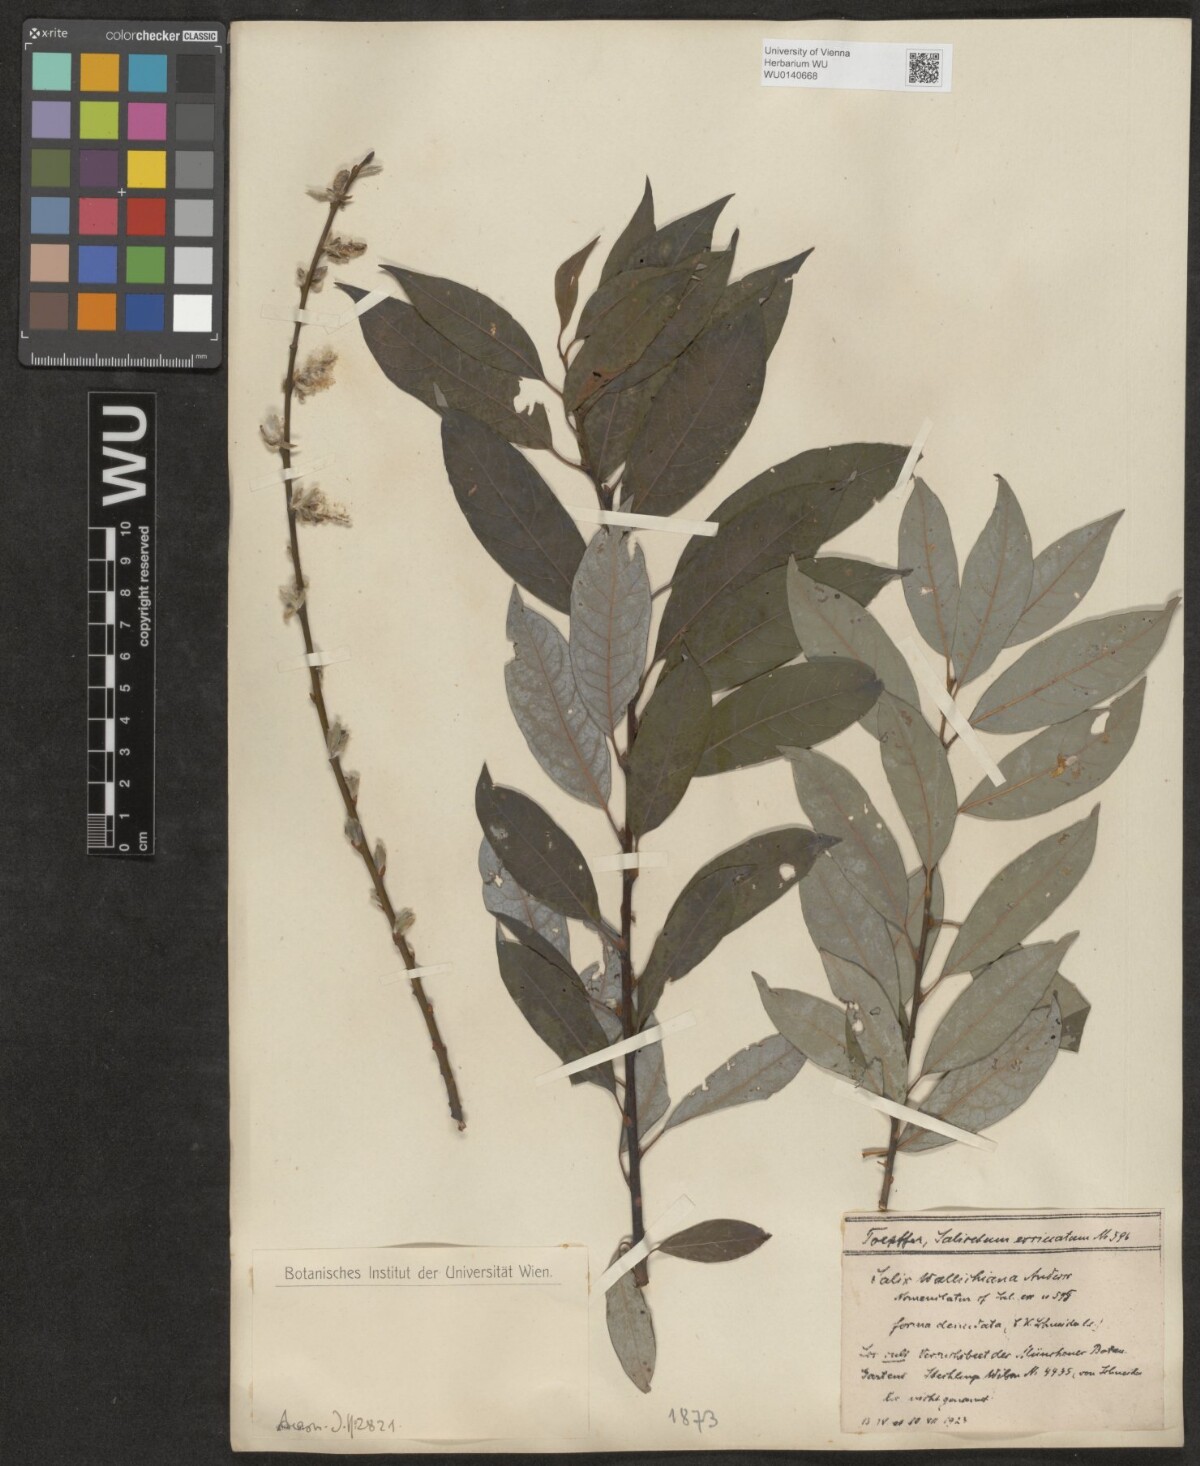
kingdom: Plantae
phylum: Tracheophyta
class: Magnoliopsida
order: Malpighiales
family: Salicaceae
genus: Salix
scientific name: Salix disperma
